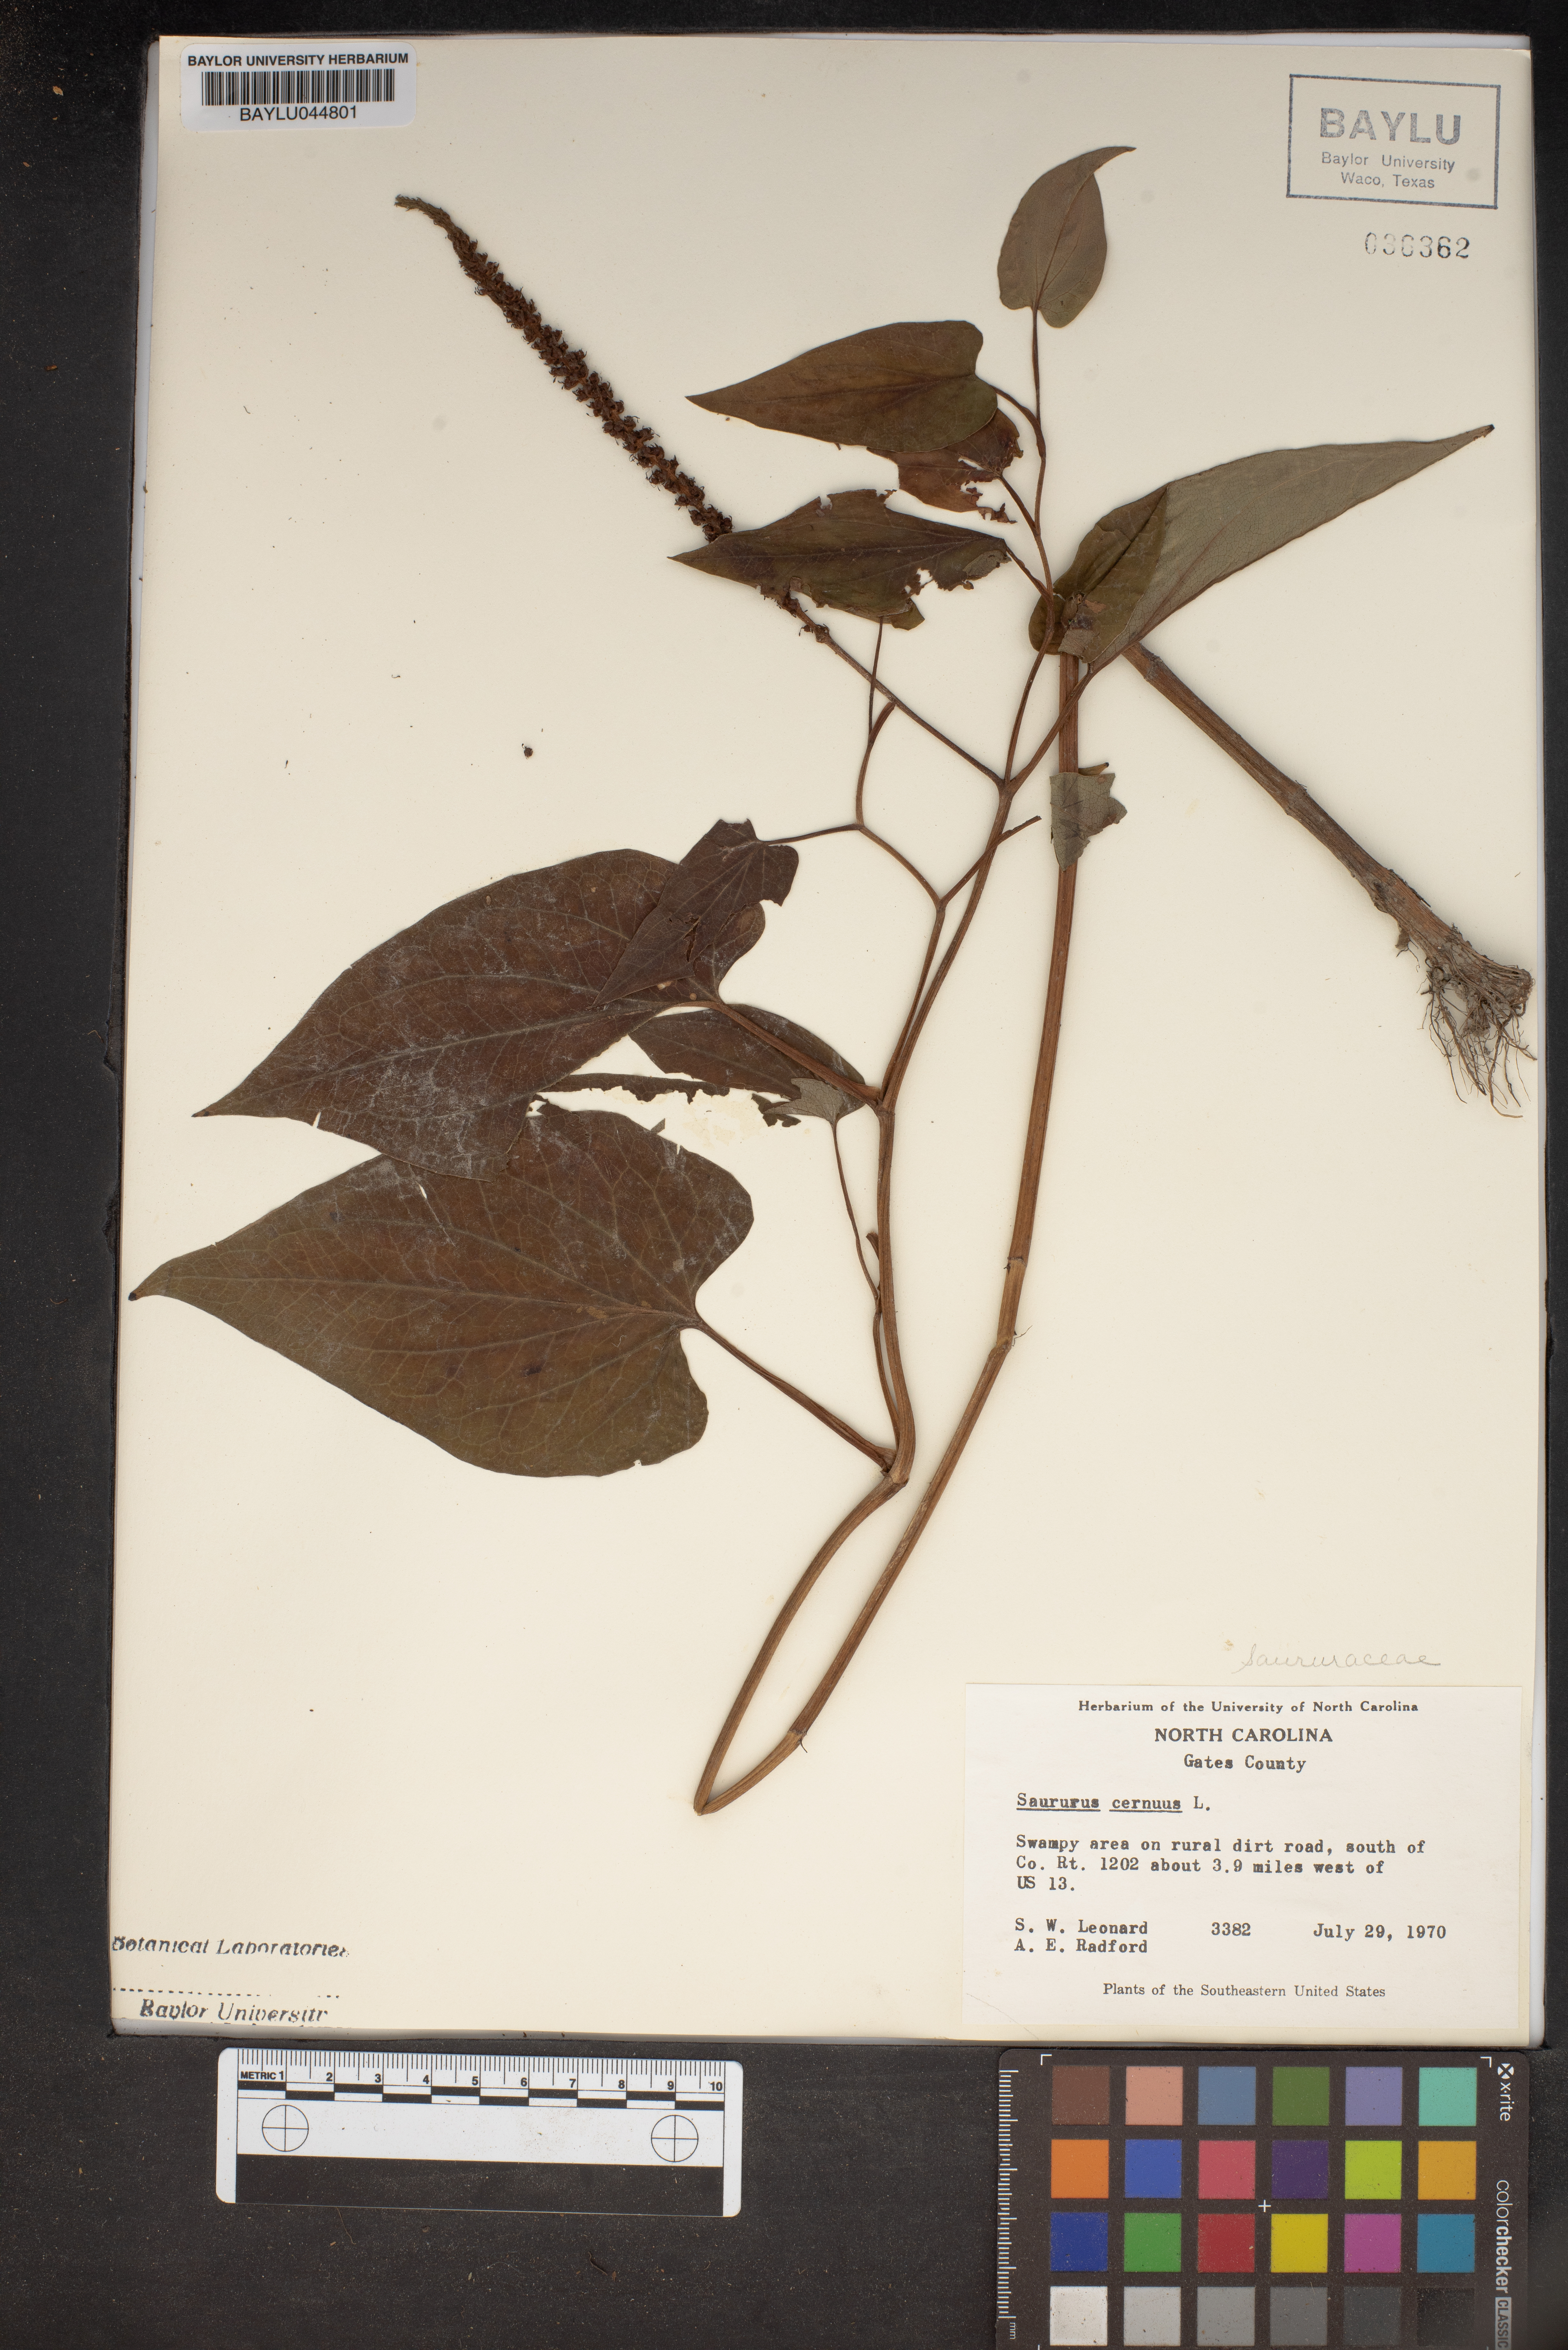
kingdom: Plantae
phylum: Tracheophyta
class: Magnoliopsida
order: Piperales
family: Saururaceae
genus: Saururus
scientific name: Saururus cernuus
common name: Lizard's-tail
